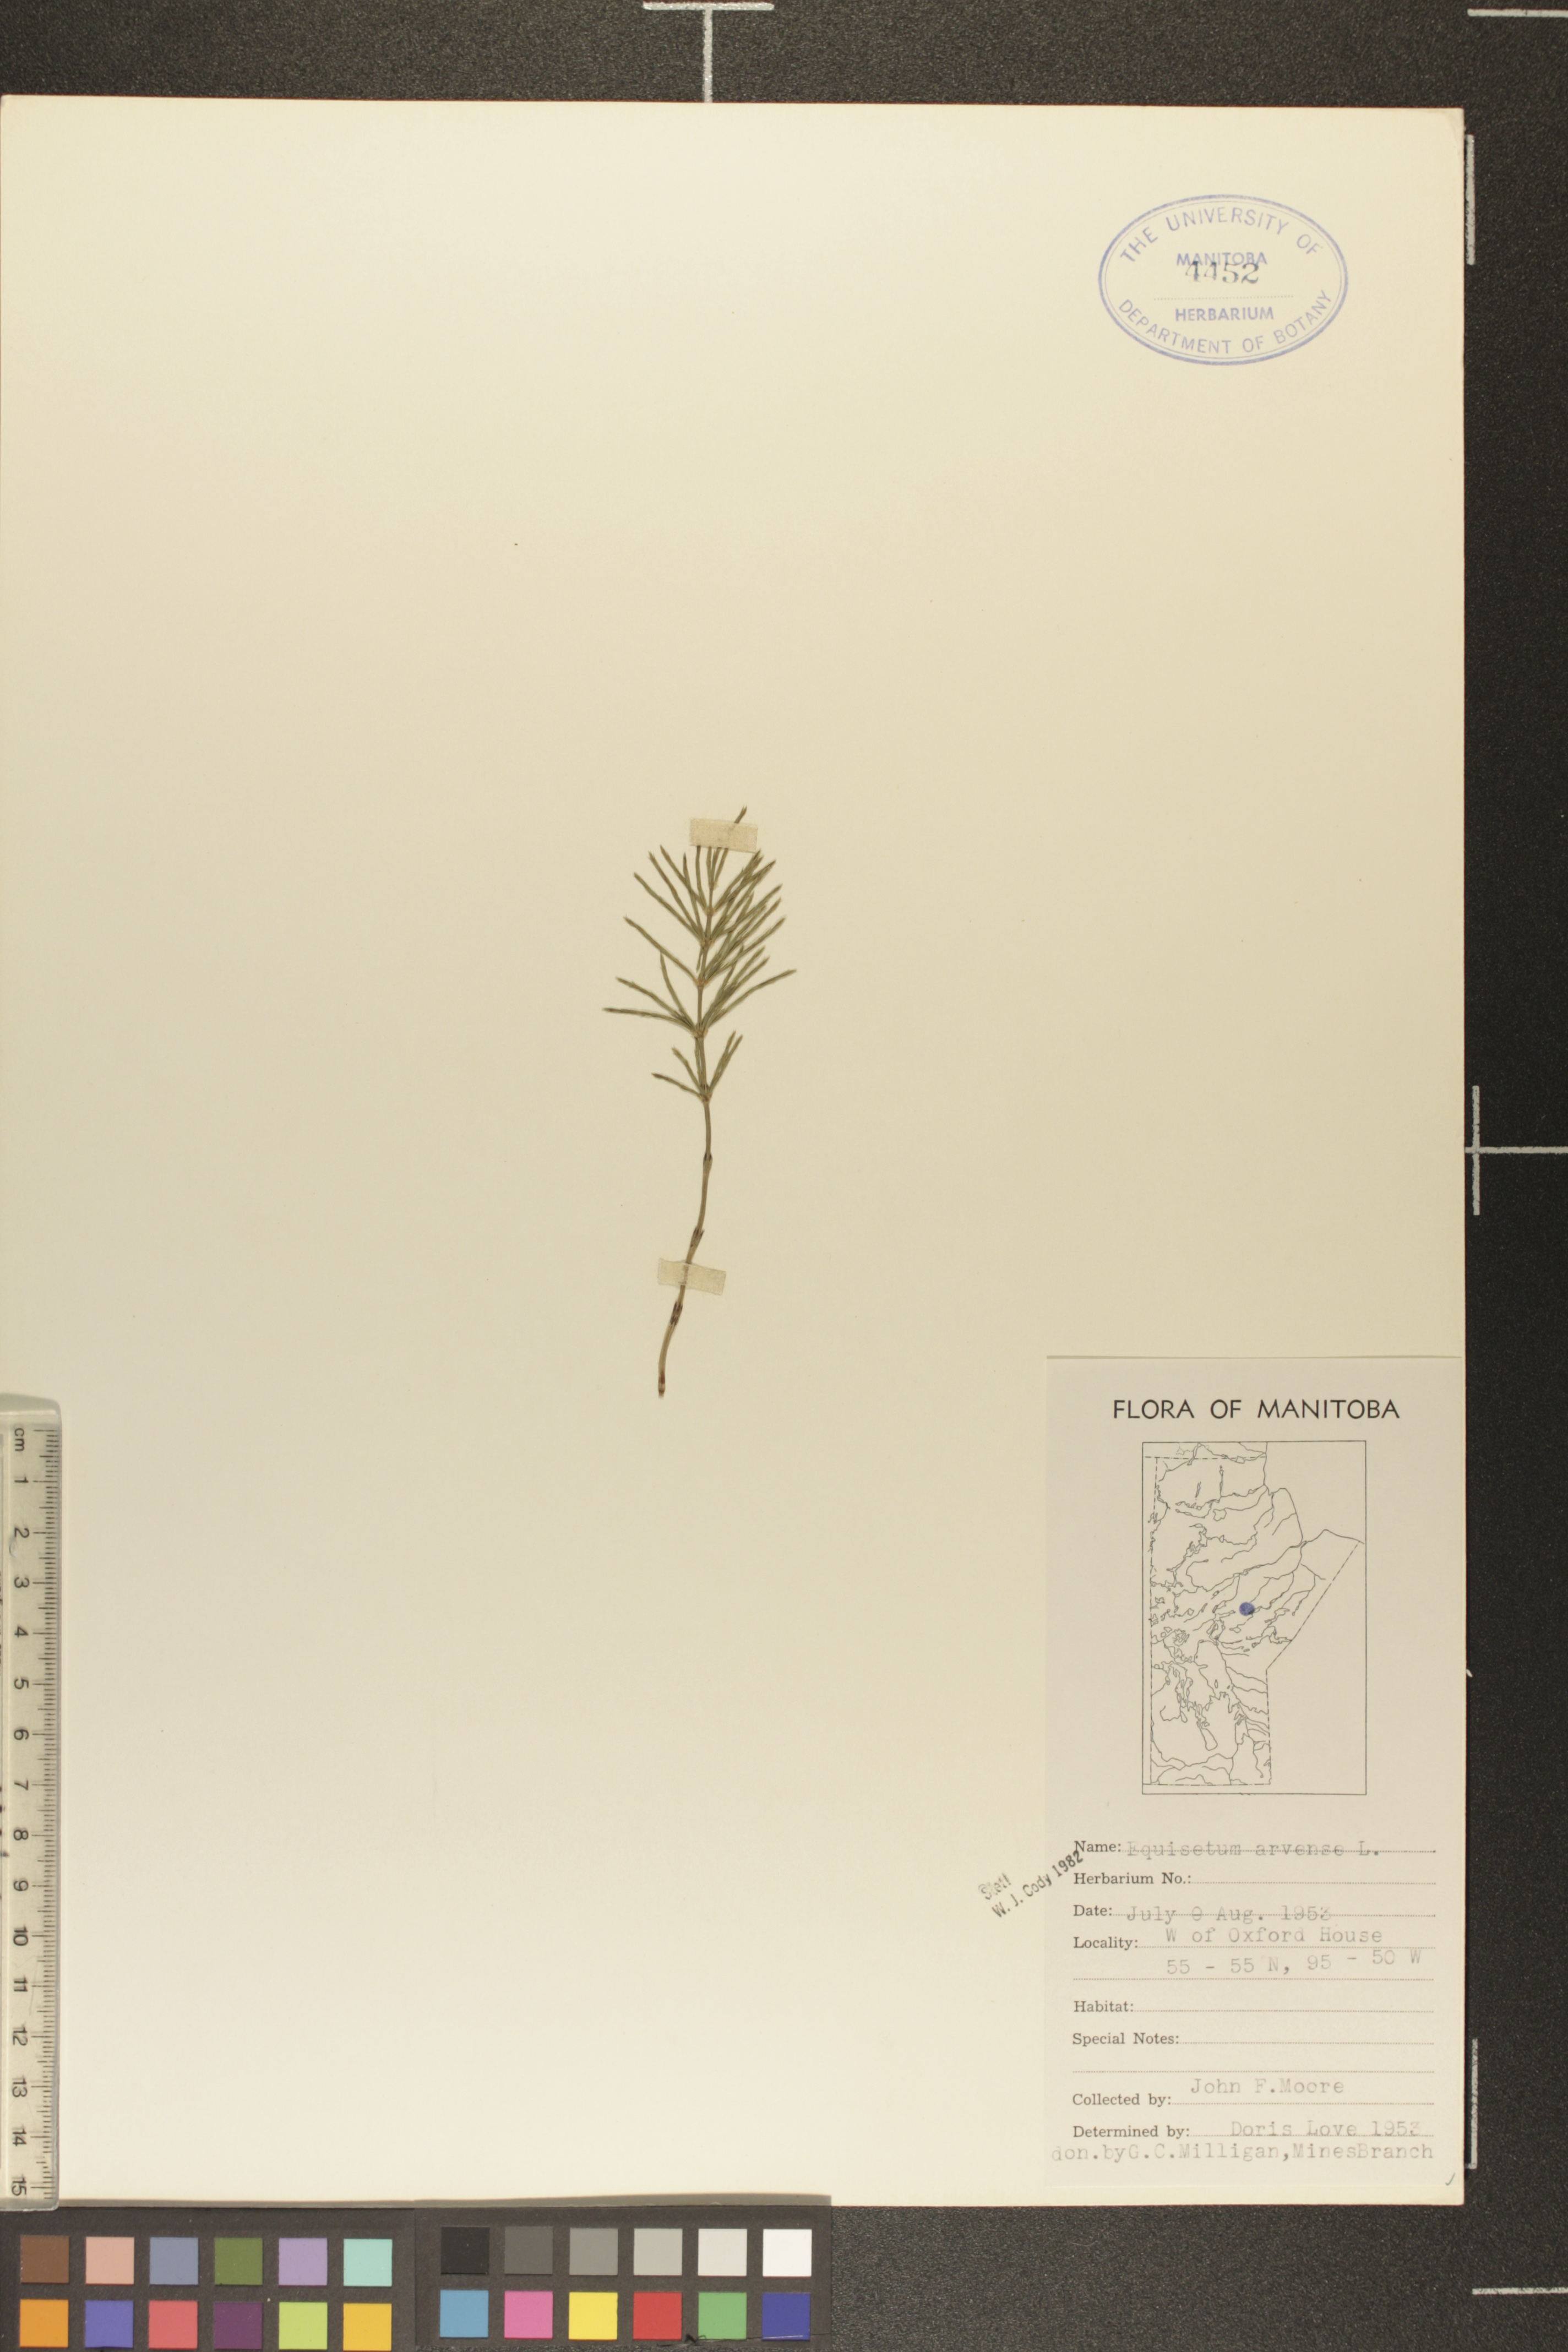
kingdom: Plantae
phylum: Tracheophyta
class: Polypodiopsida
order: Equisetales
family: Equisetaceae
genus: Equisetum
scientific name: Equisetum arvense
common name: Field horsetail
